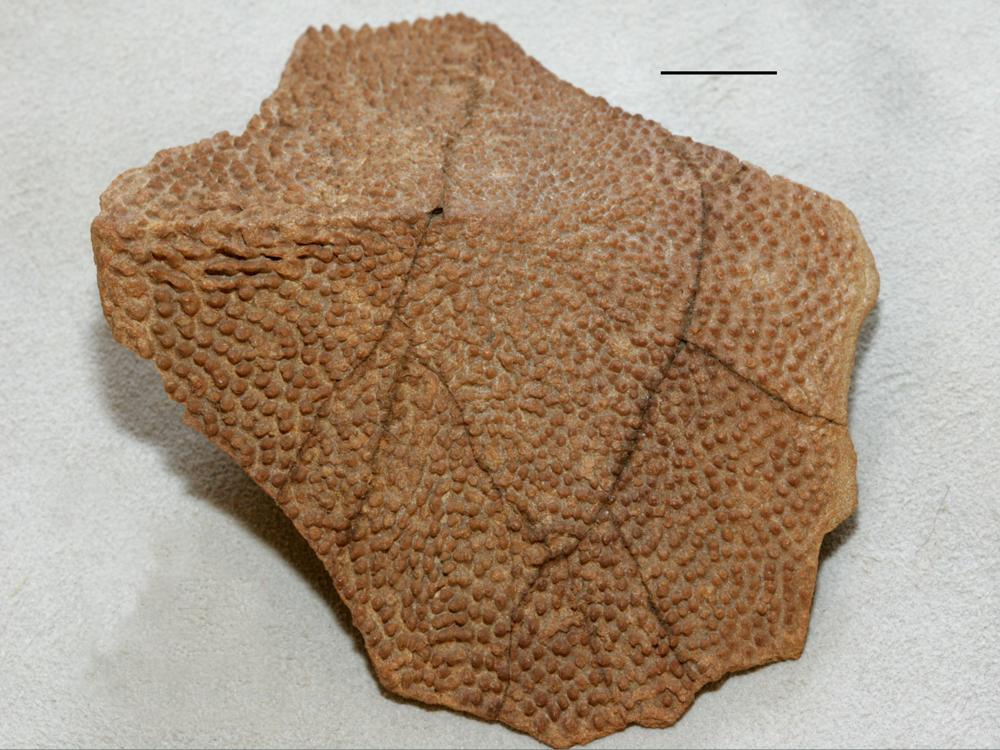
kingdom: Animalia
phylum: Chordata
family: Actinolepididae
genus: Actinolepis
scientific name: Actinolepis magna
